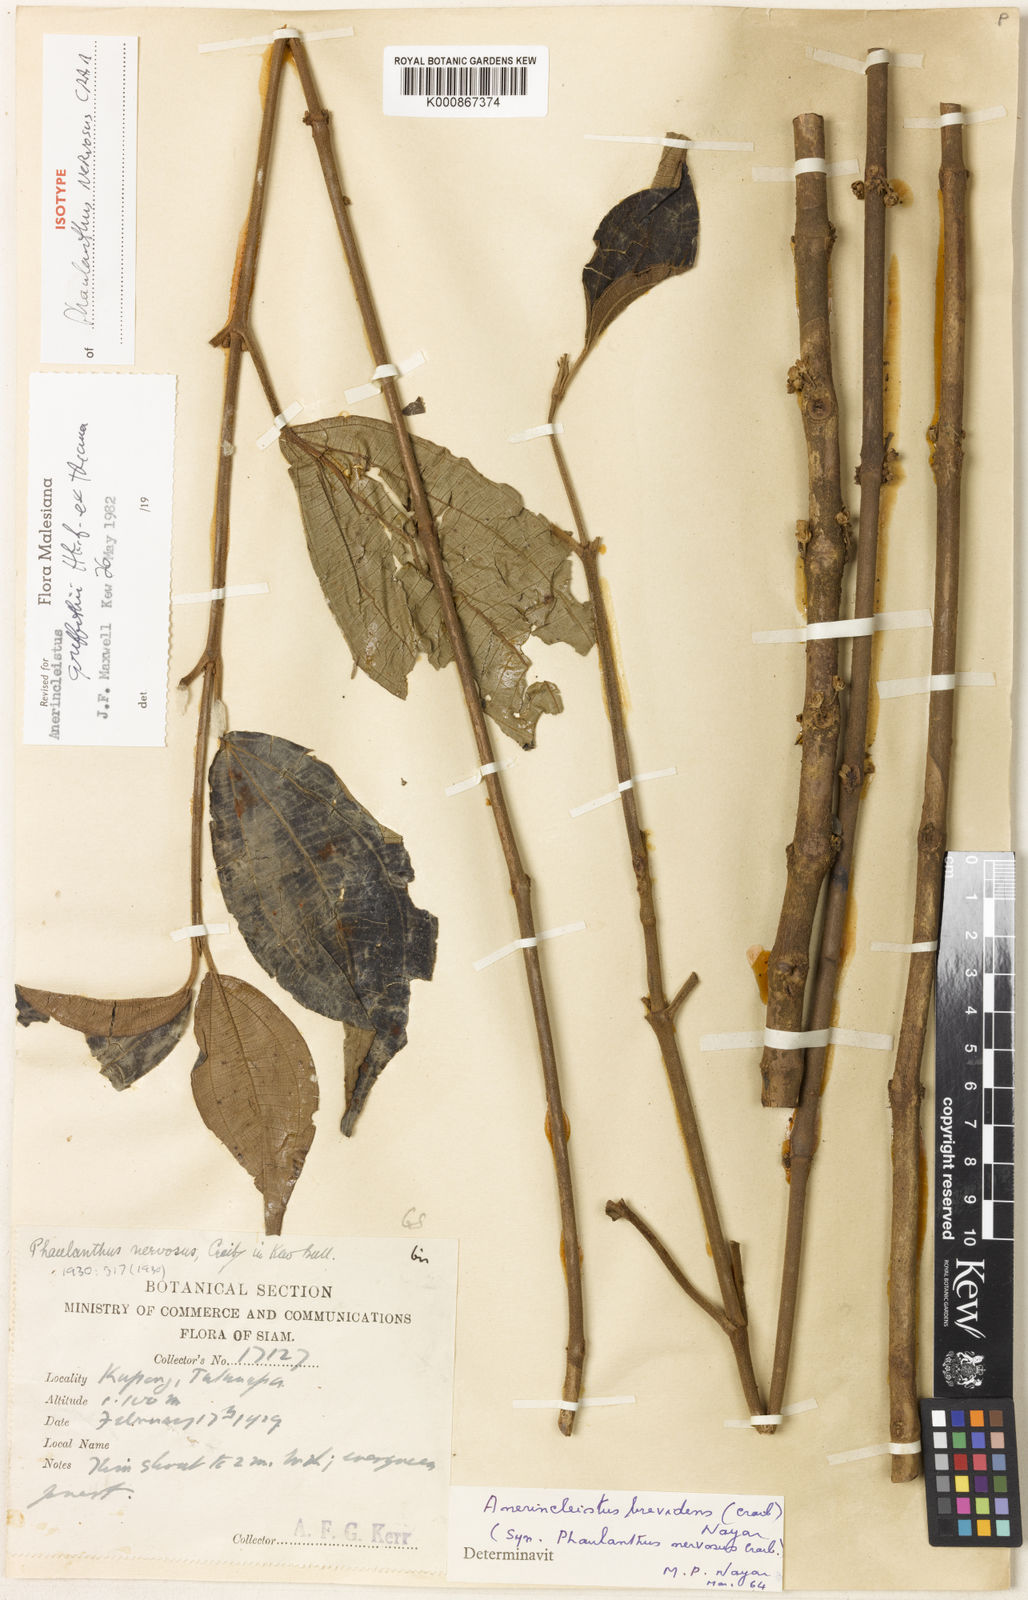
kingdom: Plantae
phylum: Tracheophyta
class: Magnoliopsida
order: Myrtales
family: Melastomataceae
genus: Anerincleistus
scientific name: Anerincleistus pedunculatus
